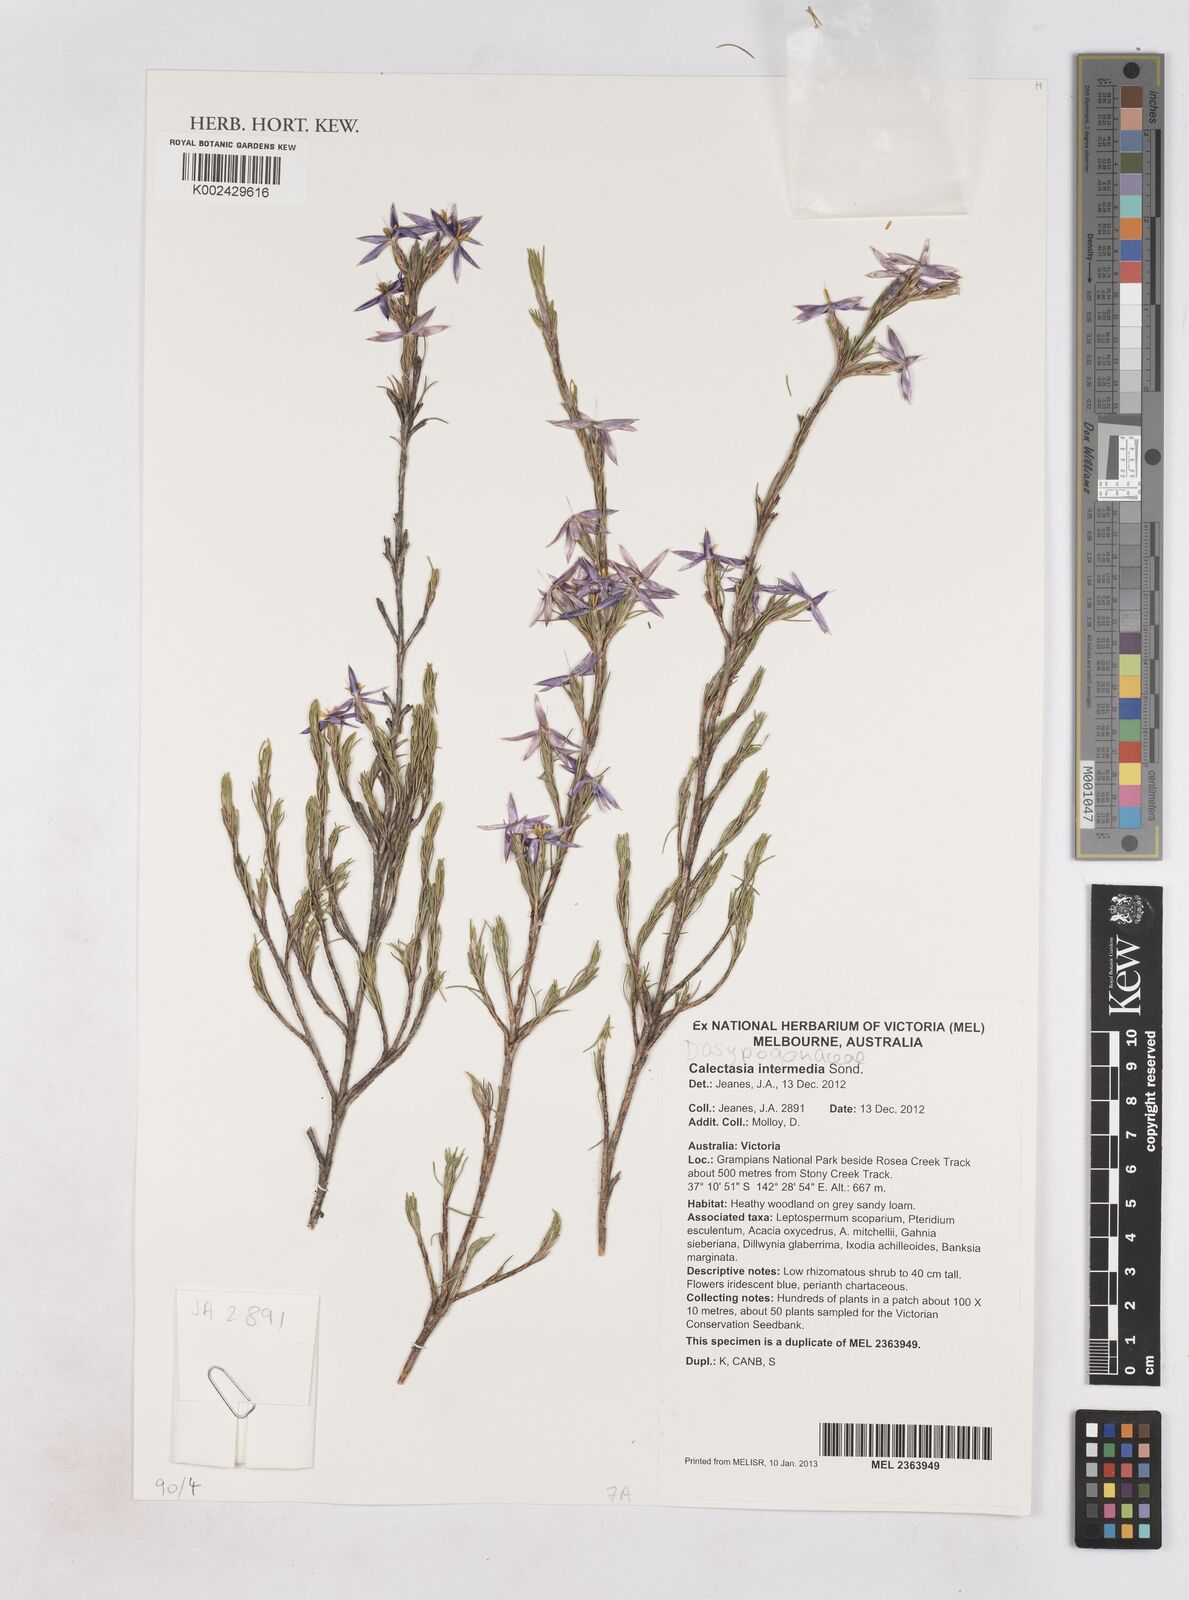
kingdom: Plantae
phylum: Tracheophyta
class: Liliopsida
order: Arecales
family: Dasypogonaceae
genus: Calectasia
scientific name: Calectasia intermedia
